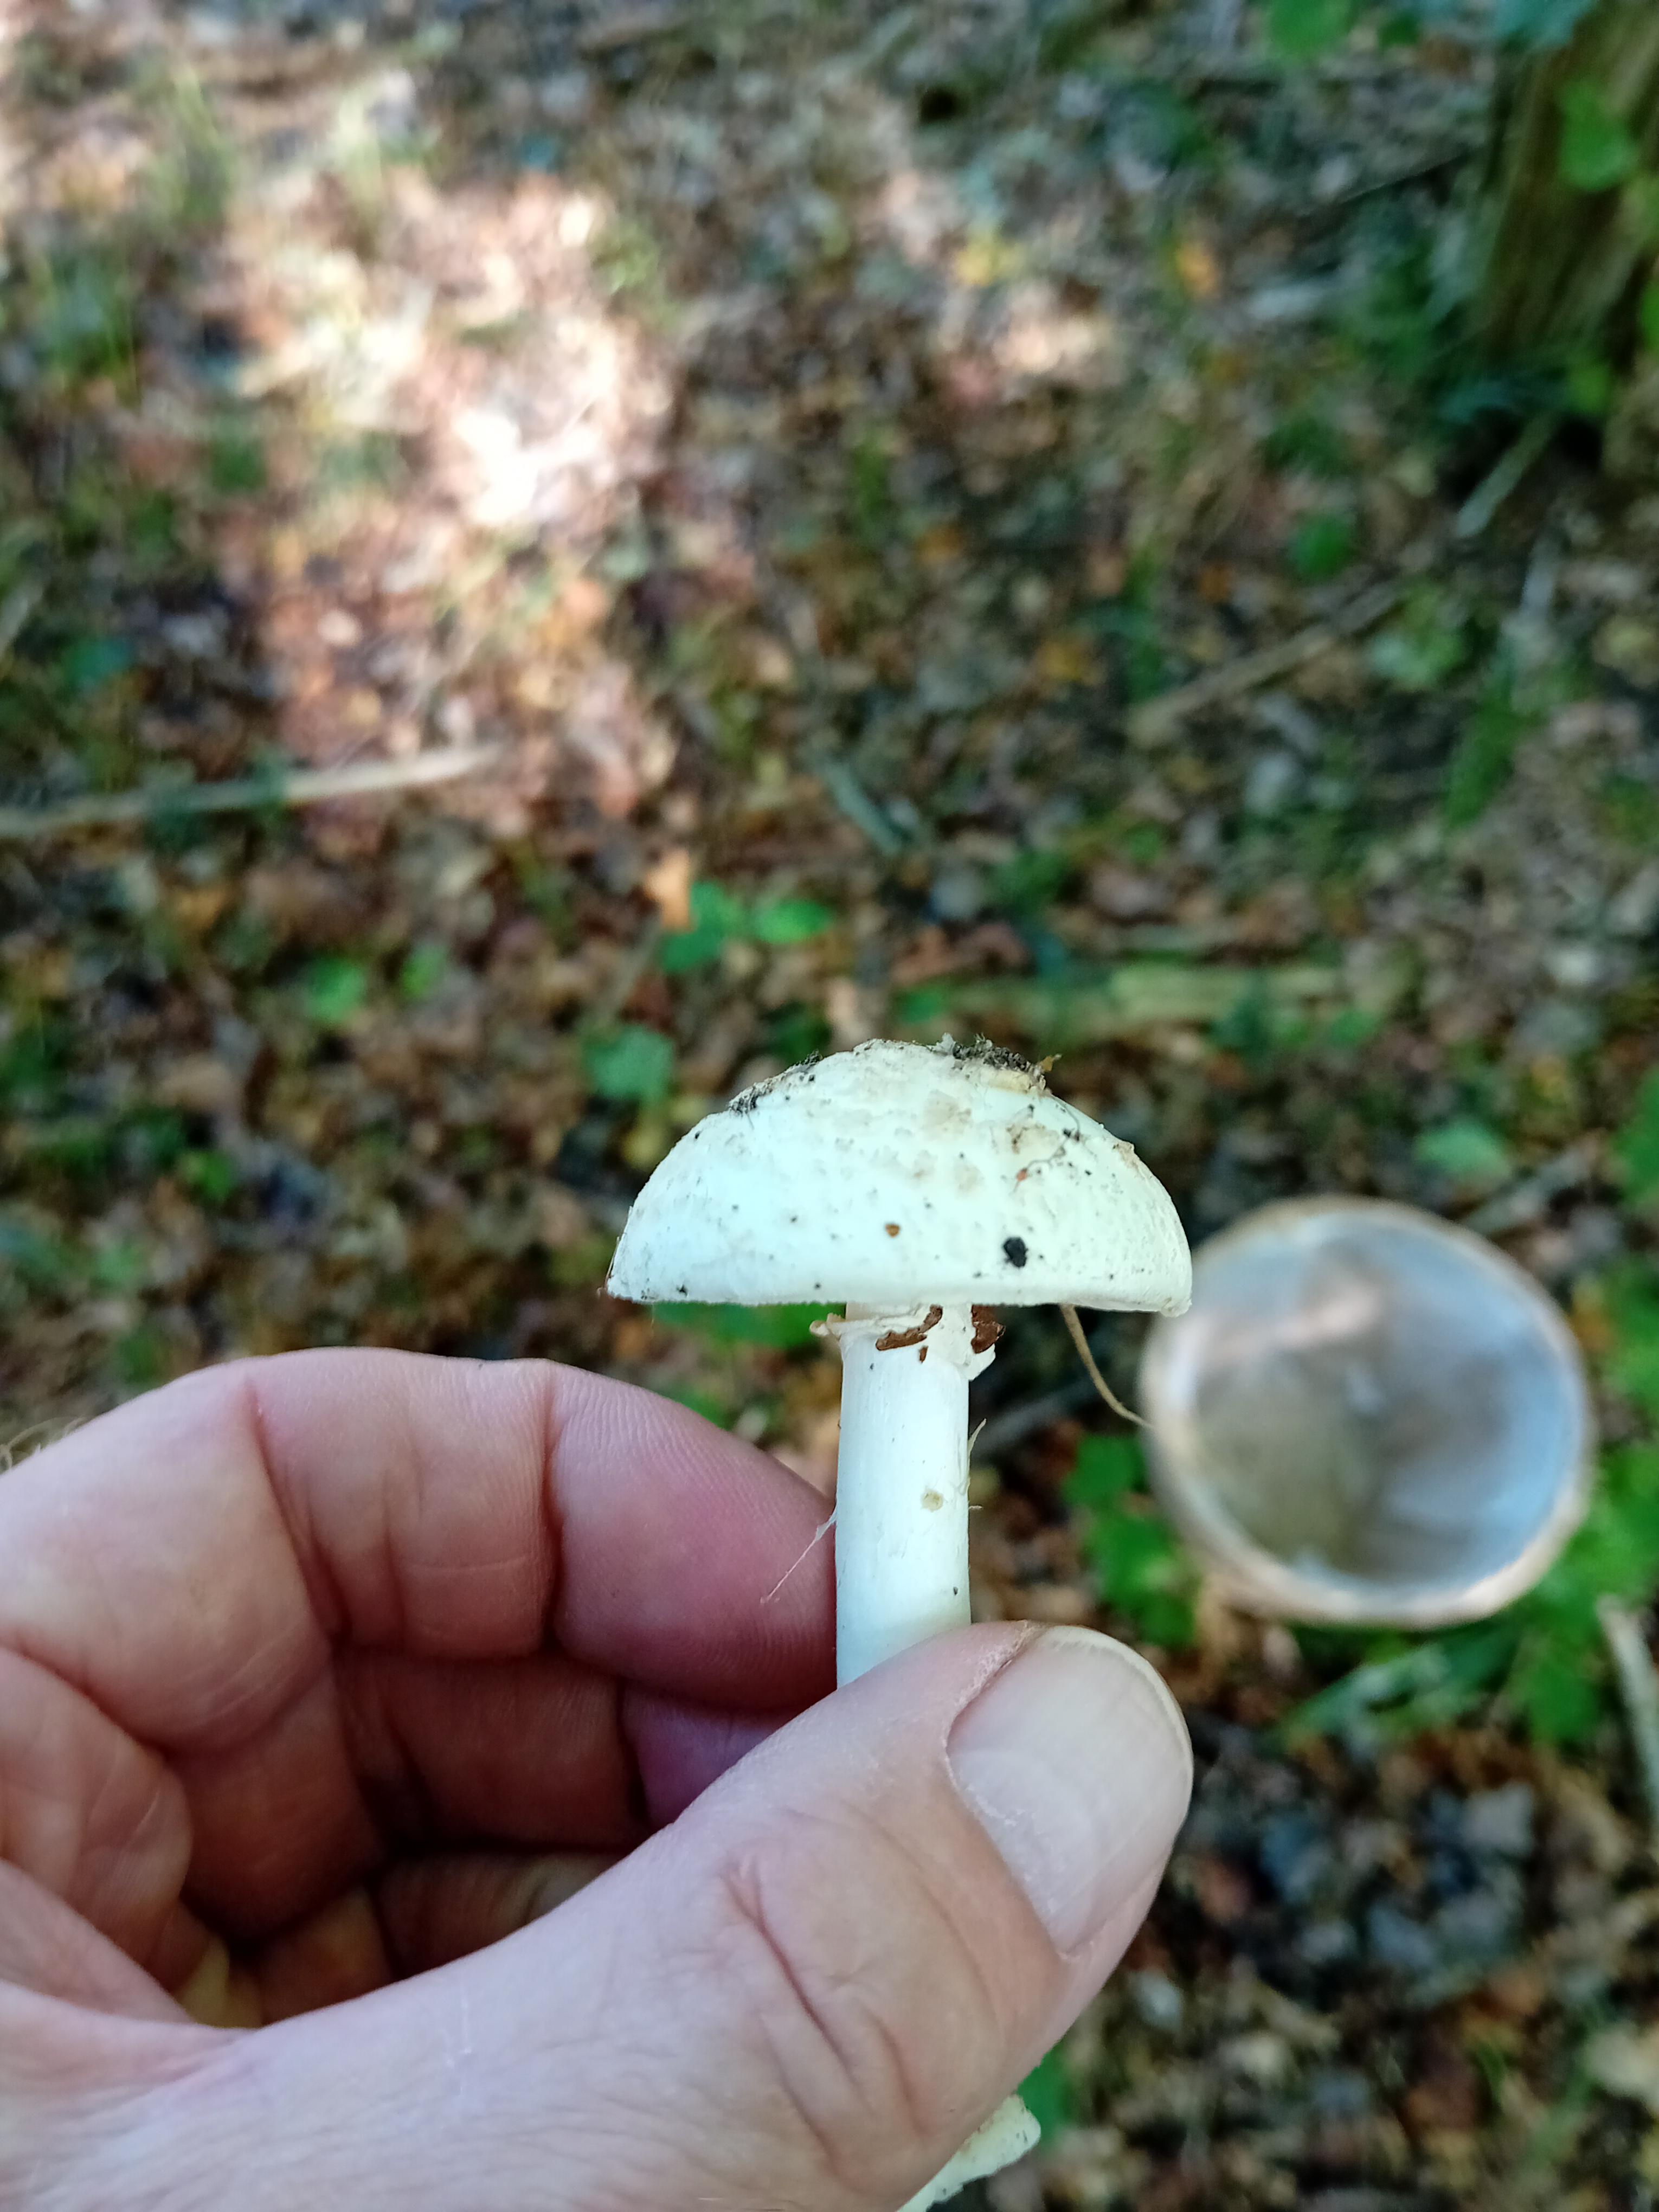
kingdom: Fungi
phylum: Basidiomycota
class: Agaricomycetes
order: Agaricales
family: Amanitaceae
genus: Amanita
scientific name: Amanita citrina
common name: kugleknoldet fluesvamp
